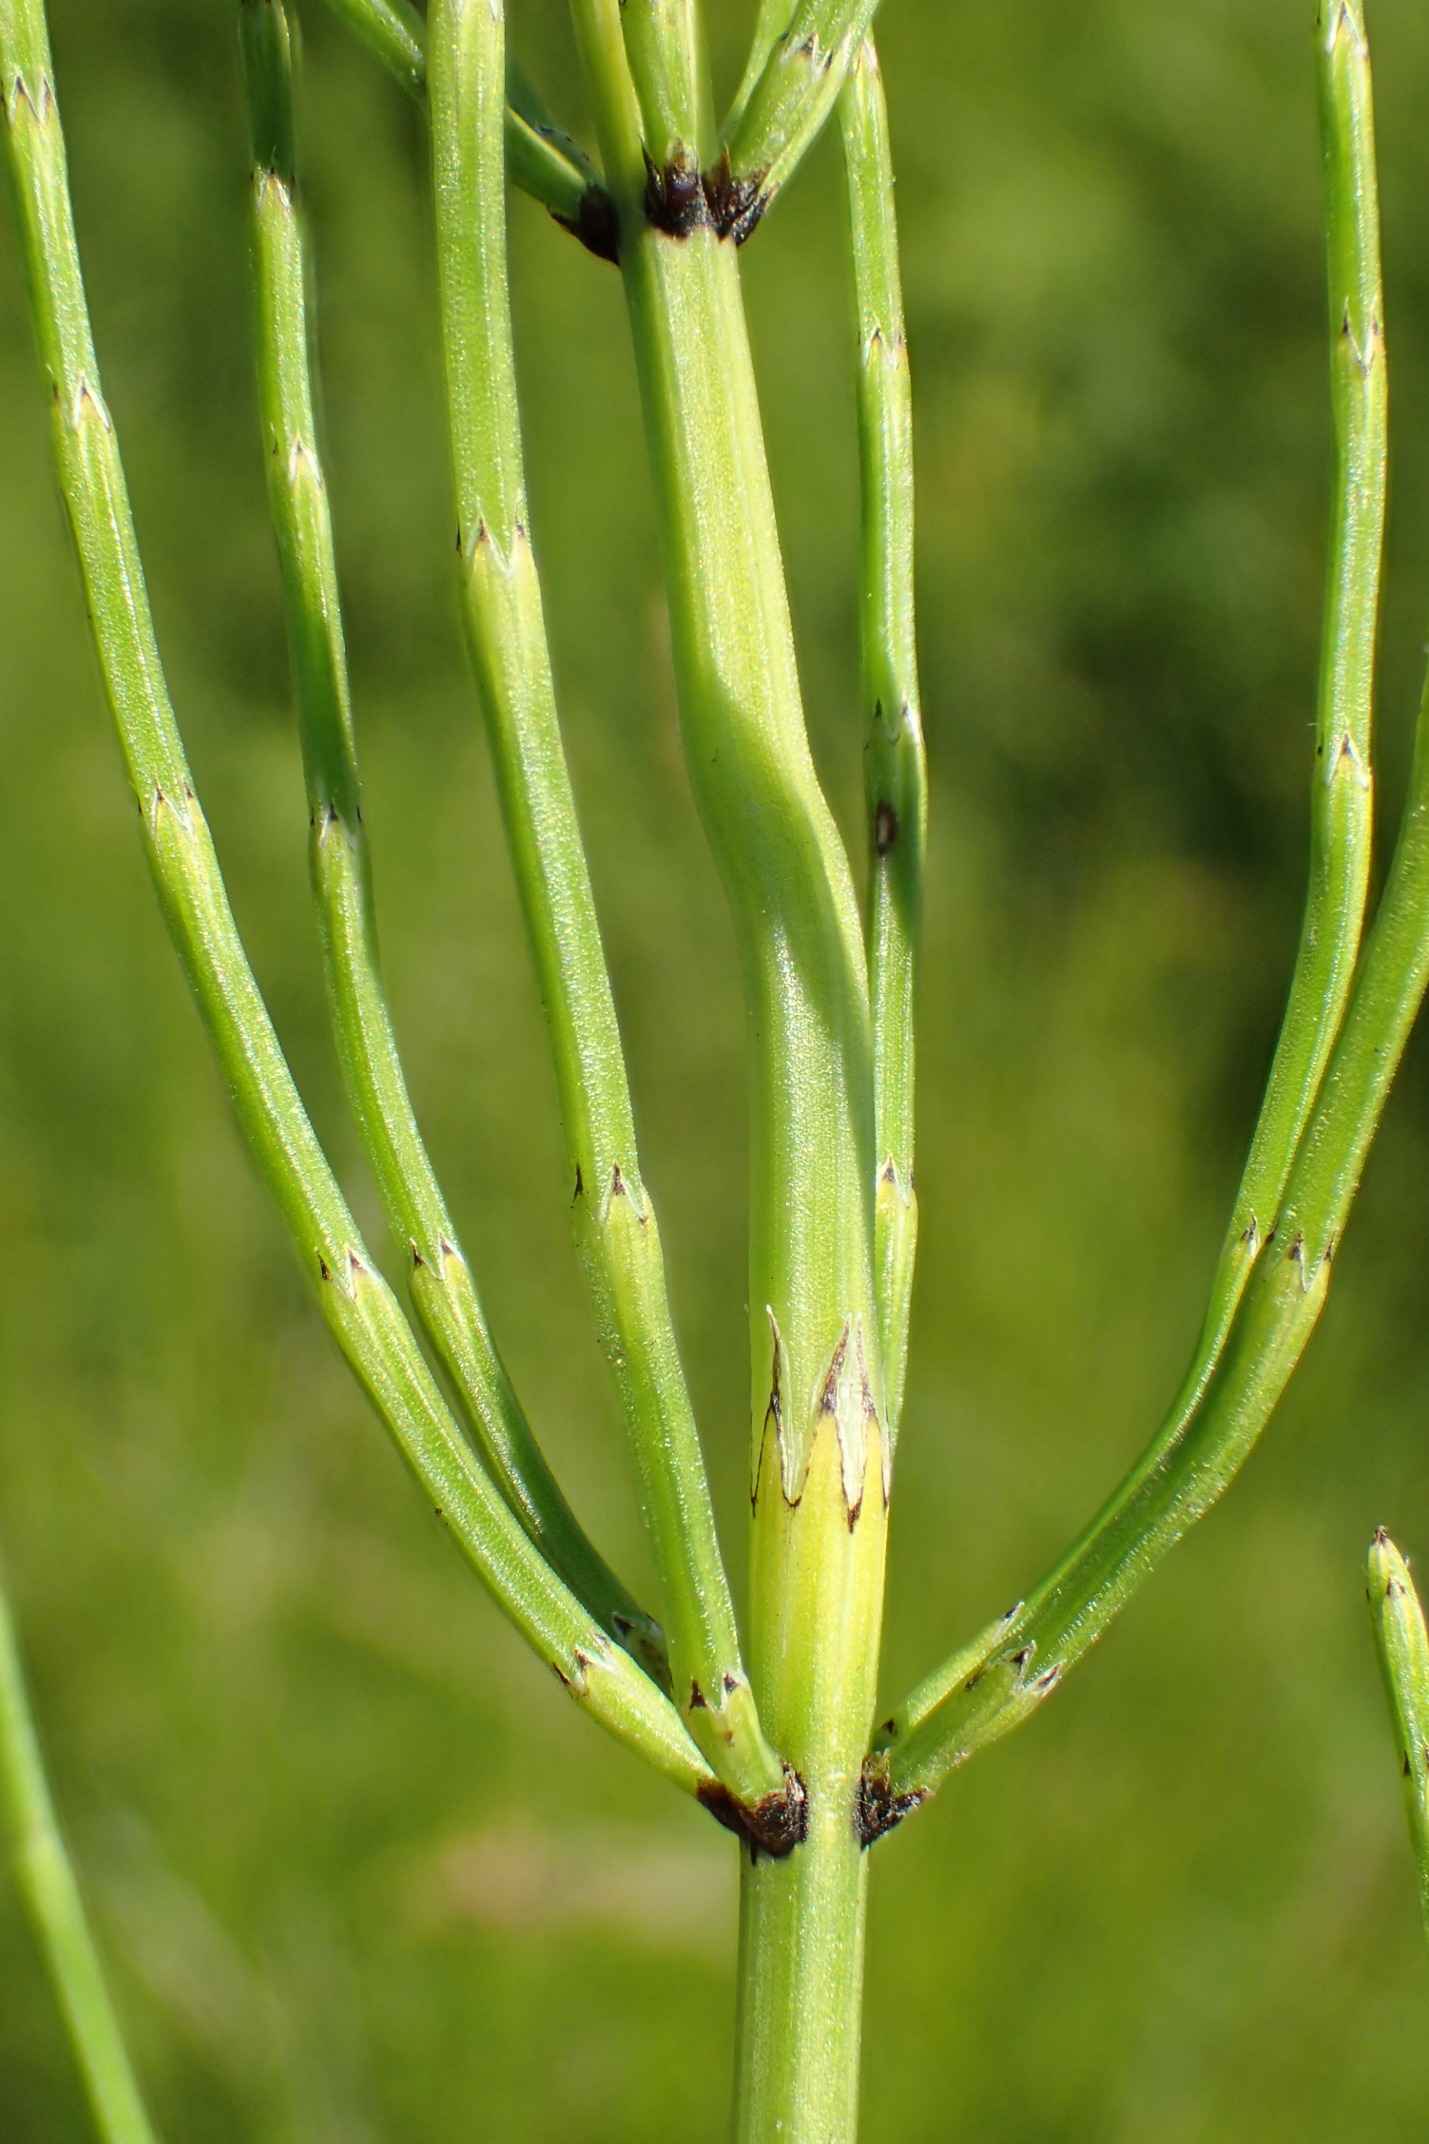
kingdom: Plantae
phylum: Tracheophyta
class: Polypodiopsida
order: Equisetales
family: Equisetaceae
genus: Equisetum
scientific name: Equisetum palustre
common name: Kær-padderok
